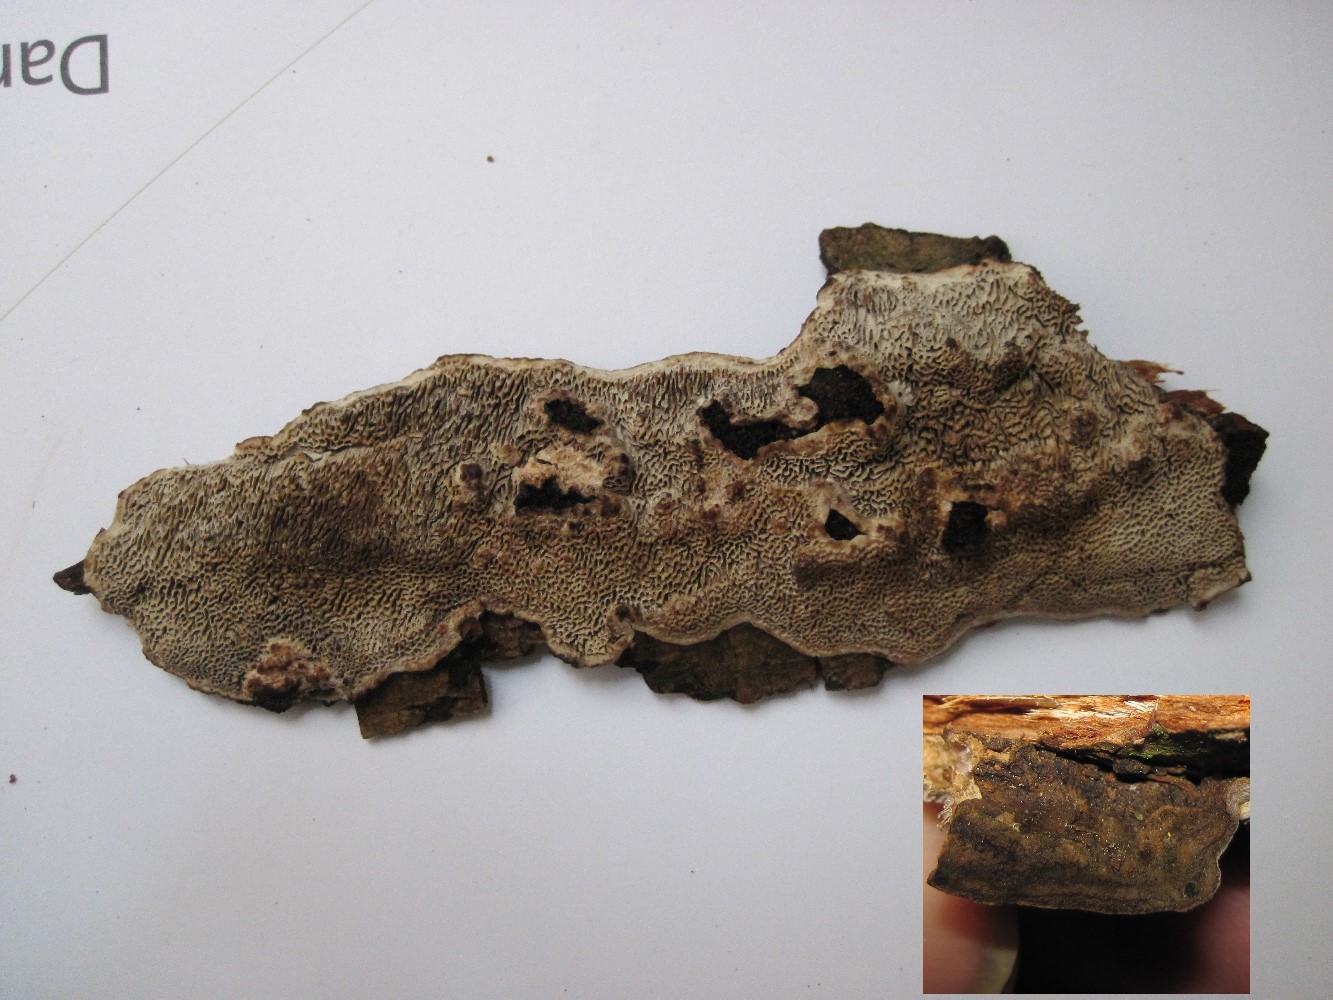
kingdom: Fungi
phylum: Basidiomycota
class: Agaricomycetes
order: Polyporales
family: Polyporaceae
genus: Podofomes
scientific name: Podofomes mollis
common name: blød begporesvamp
